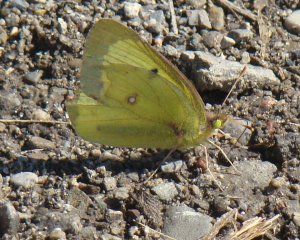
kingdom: Animalia
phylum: Arthropoda
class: Insecta
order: Lepidoptera
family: Pieridae
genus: Colias
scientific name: Colias philodice
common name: Clouded Sulphur
